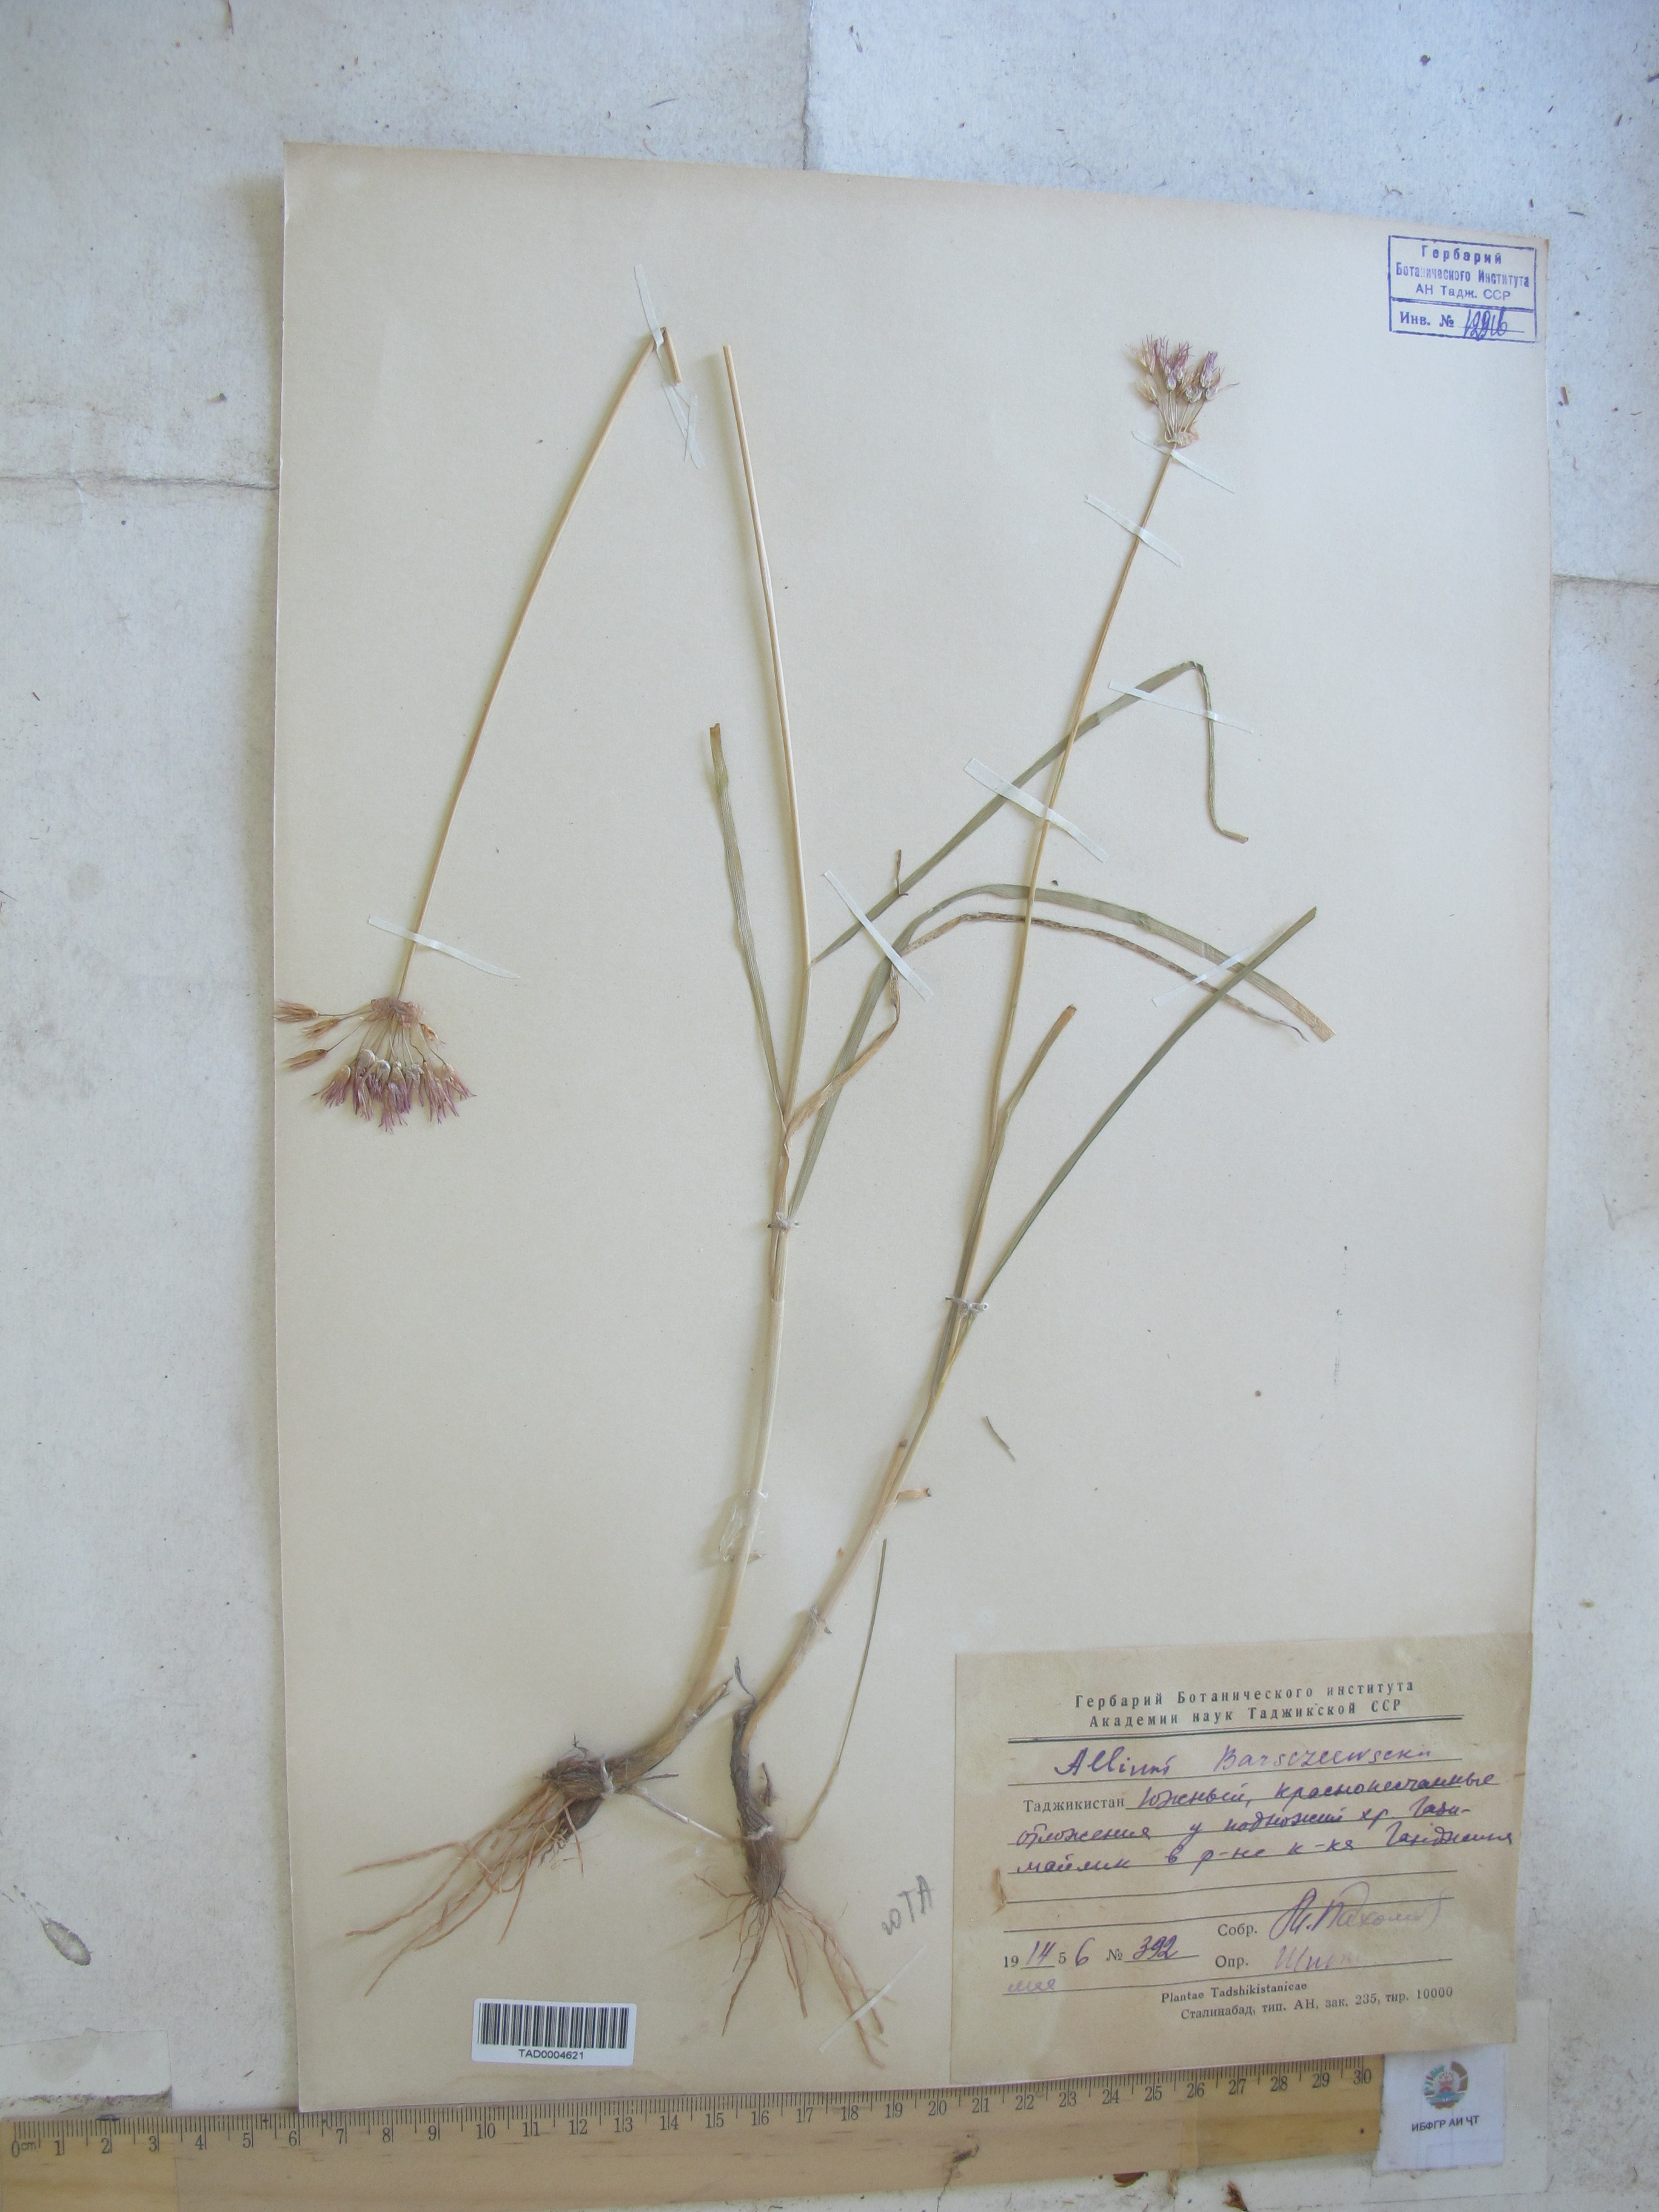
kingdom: Plantae
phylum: Tracheophyta
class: Liliopsida
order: Asparagales
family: Amaryllidaceae
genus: Allium
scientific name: Allium barsczewskii
